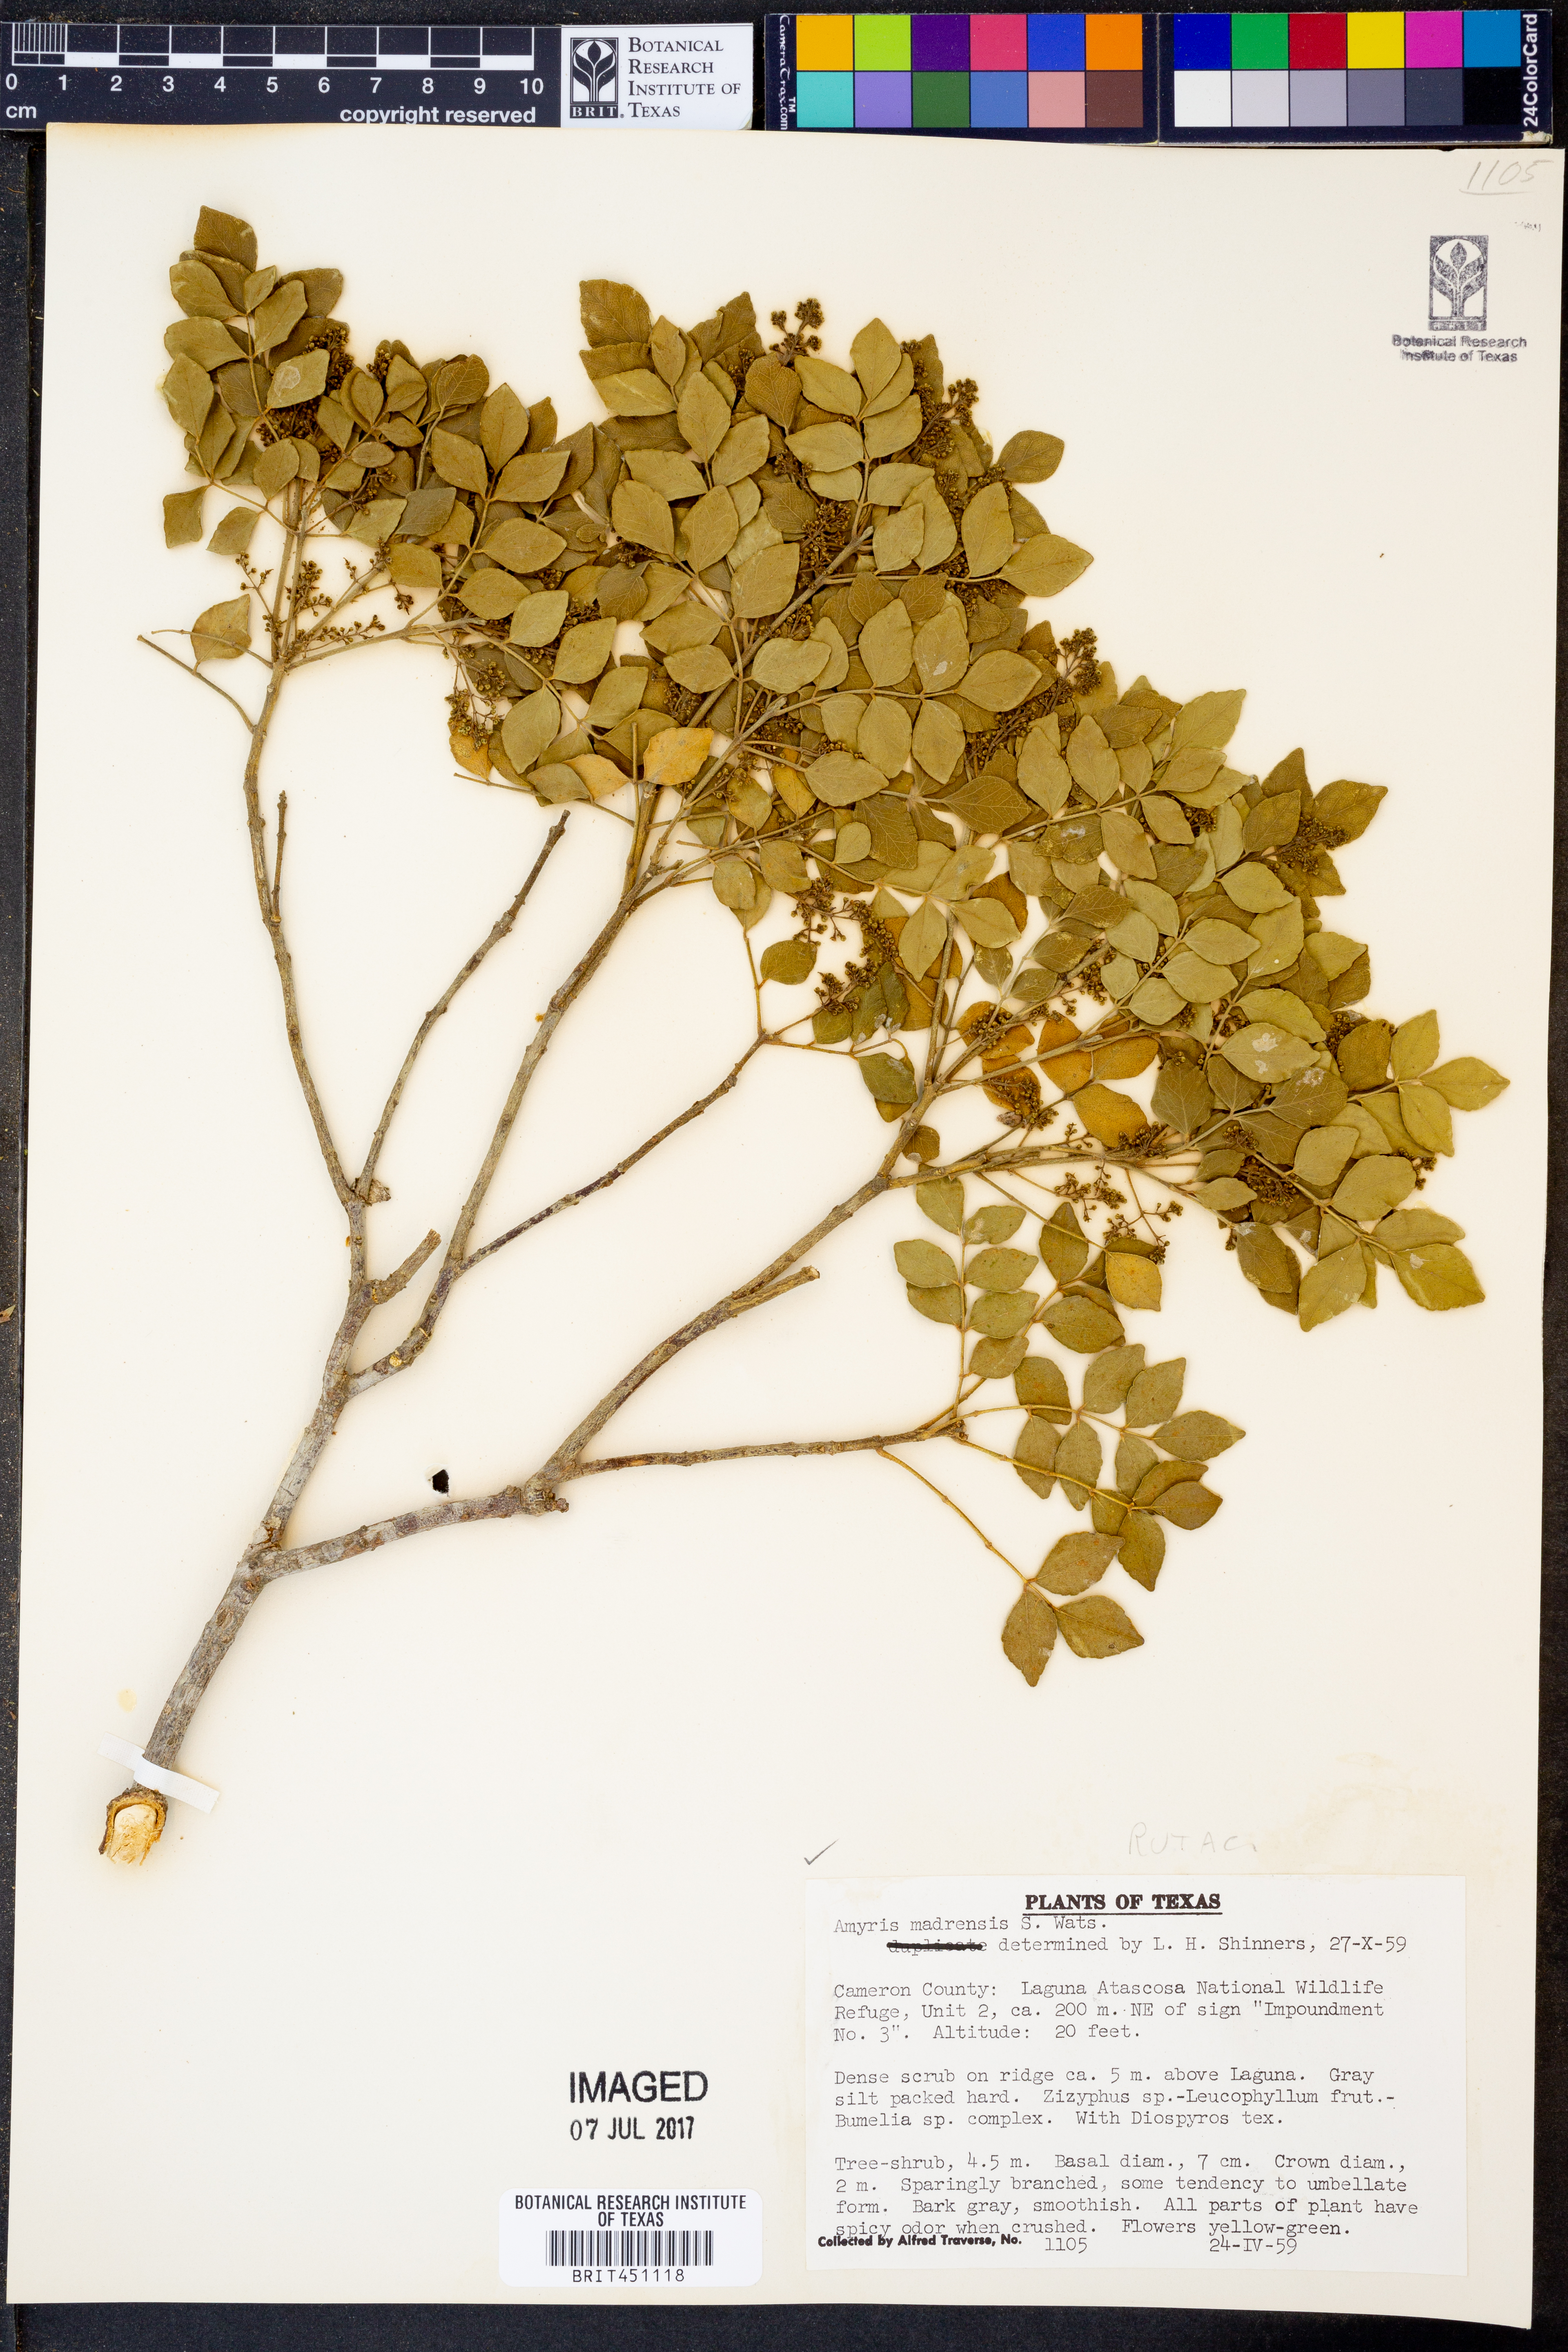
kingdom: Plantae
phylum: Tracheophyta
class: Magnoliopsida
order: Sapindales
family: Rutaceae
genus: Amyris
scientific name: Amyris madrensis
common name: Mountain torchwood
